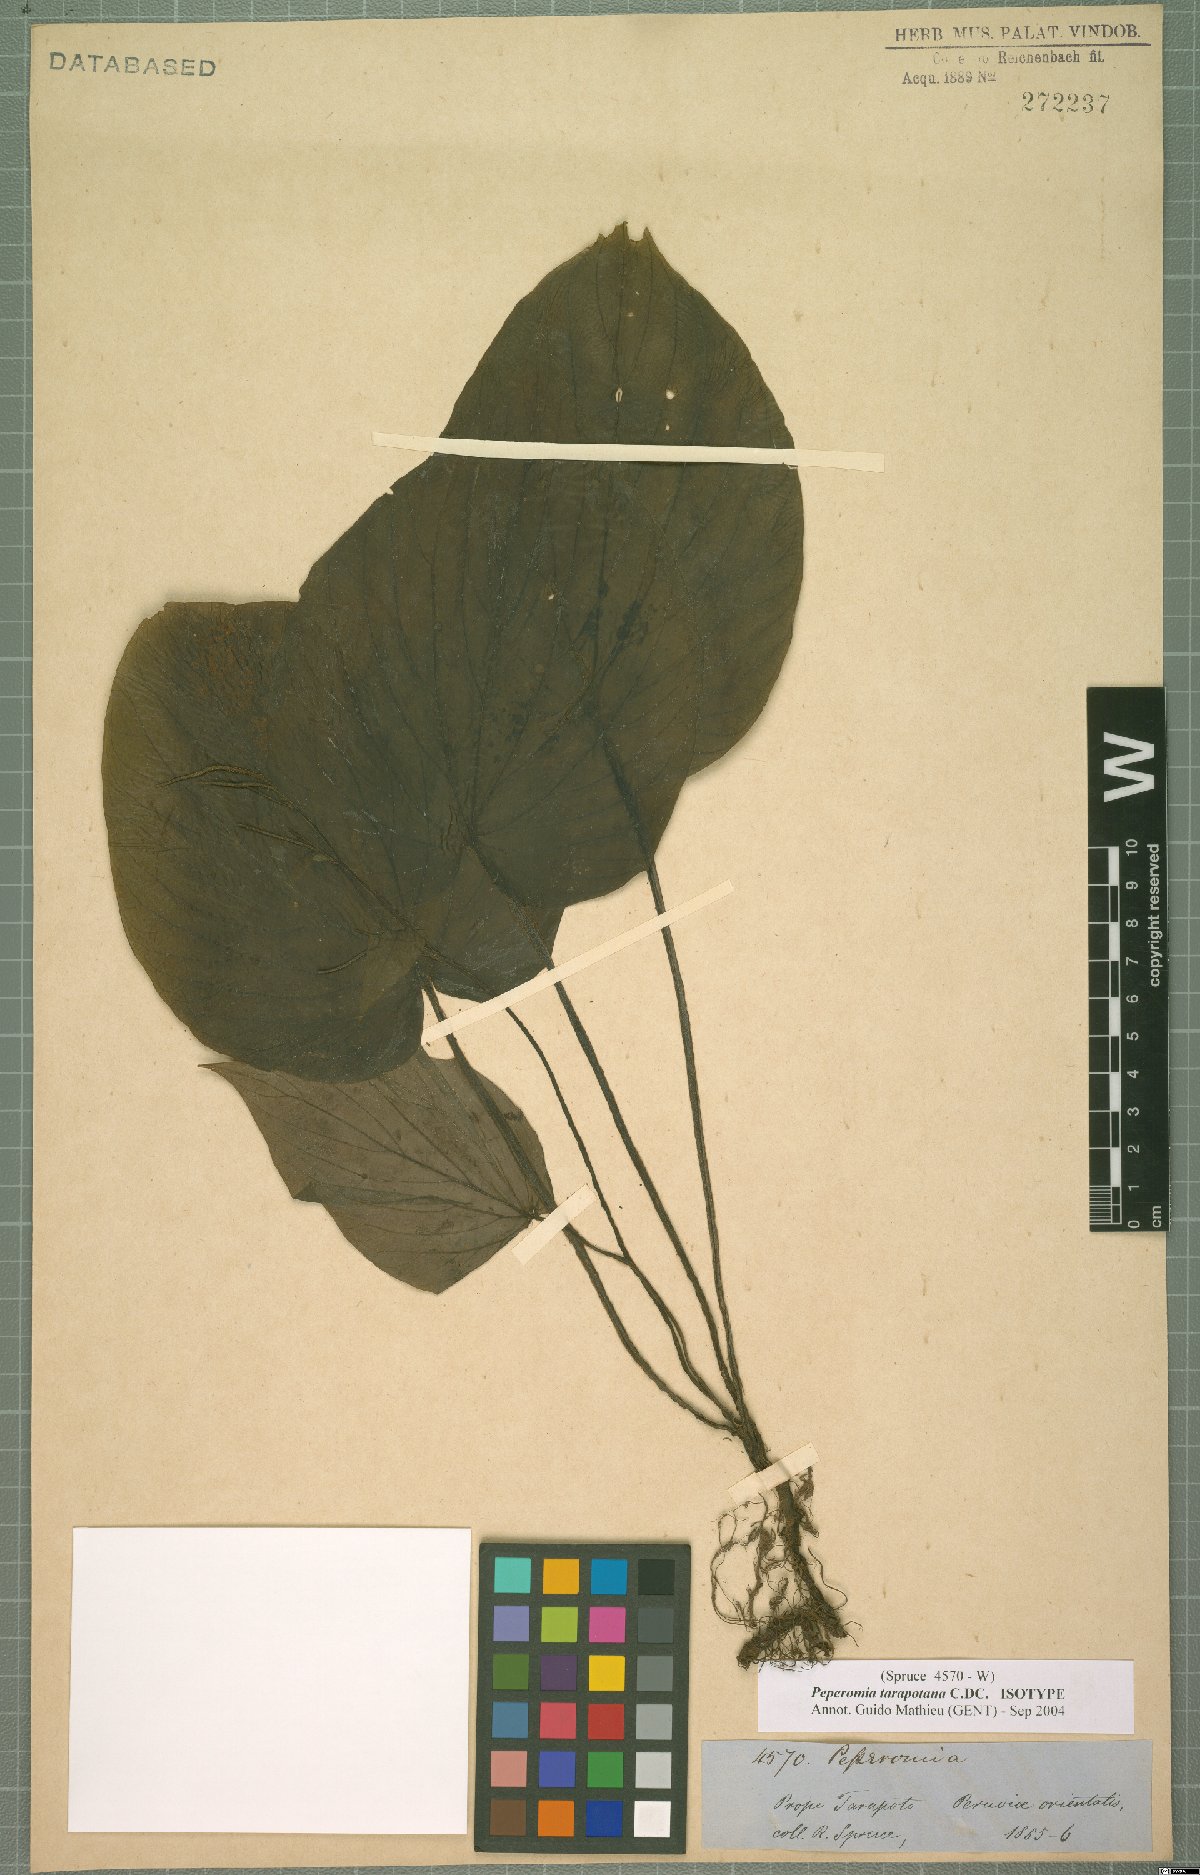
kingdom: Plantae
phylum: Tracheophyta
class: Magnoliopsida
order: Piperales
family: Piperaceae
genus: Peperomia
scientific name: Peperomia tarapotana
